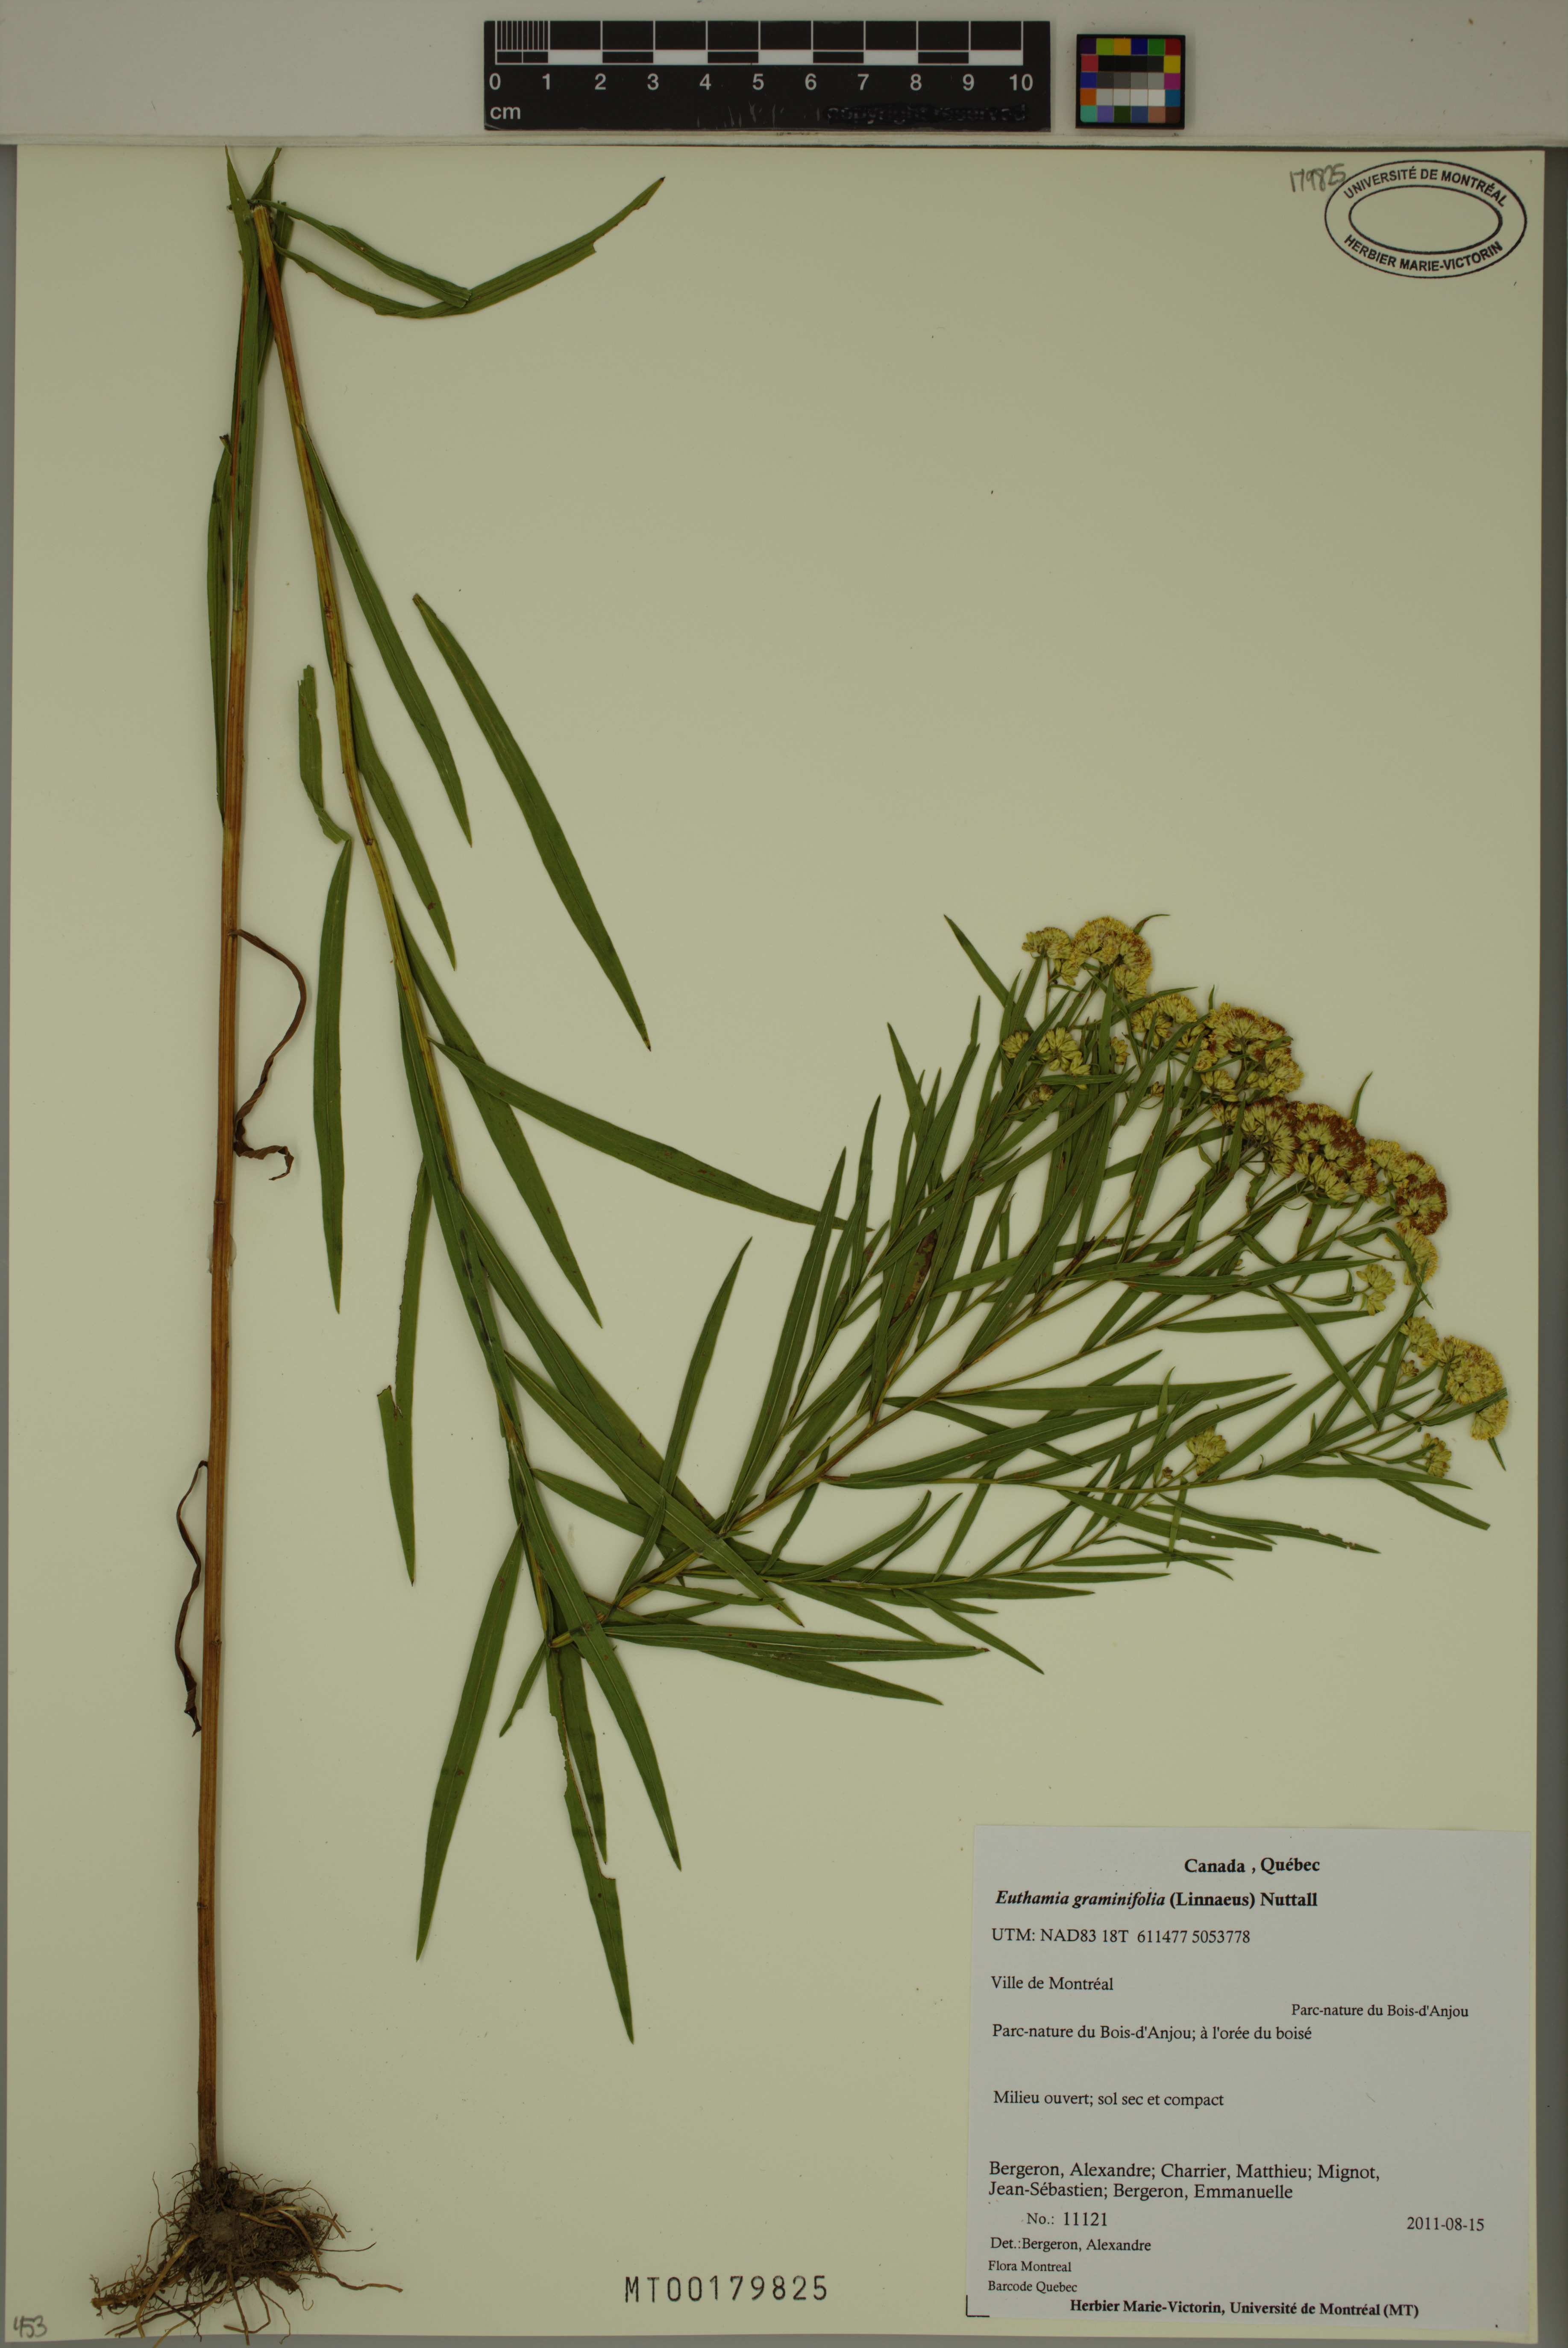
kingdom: Plantae
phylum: Tracheophyta
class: Magnoliopsida
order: Asterales
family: Asteraceae
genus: Euthamia
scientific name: Euthamia graminifolia
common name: Common goldentop
